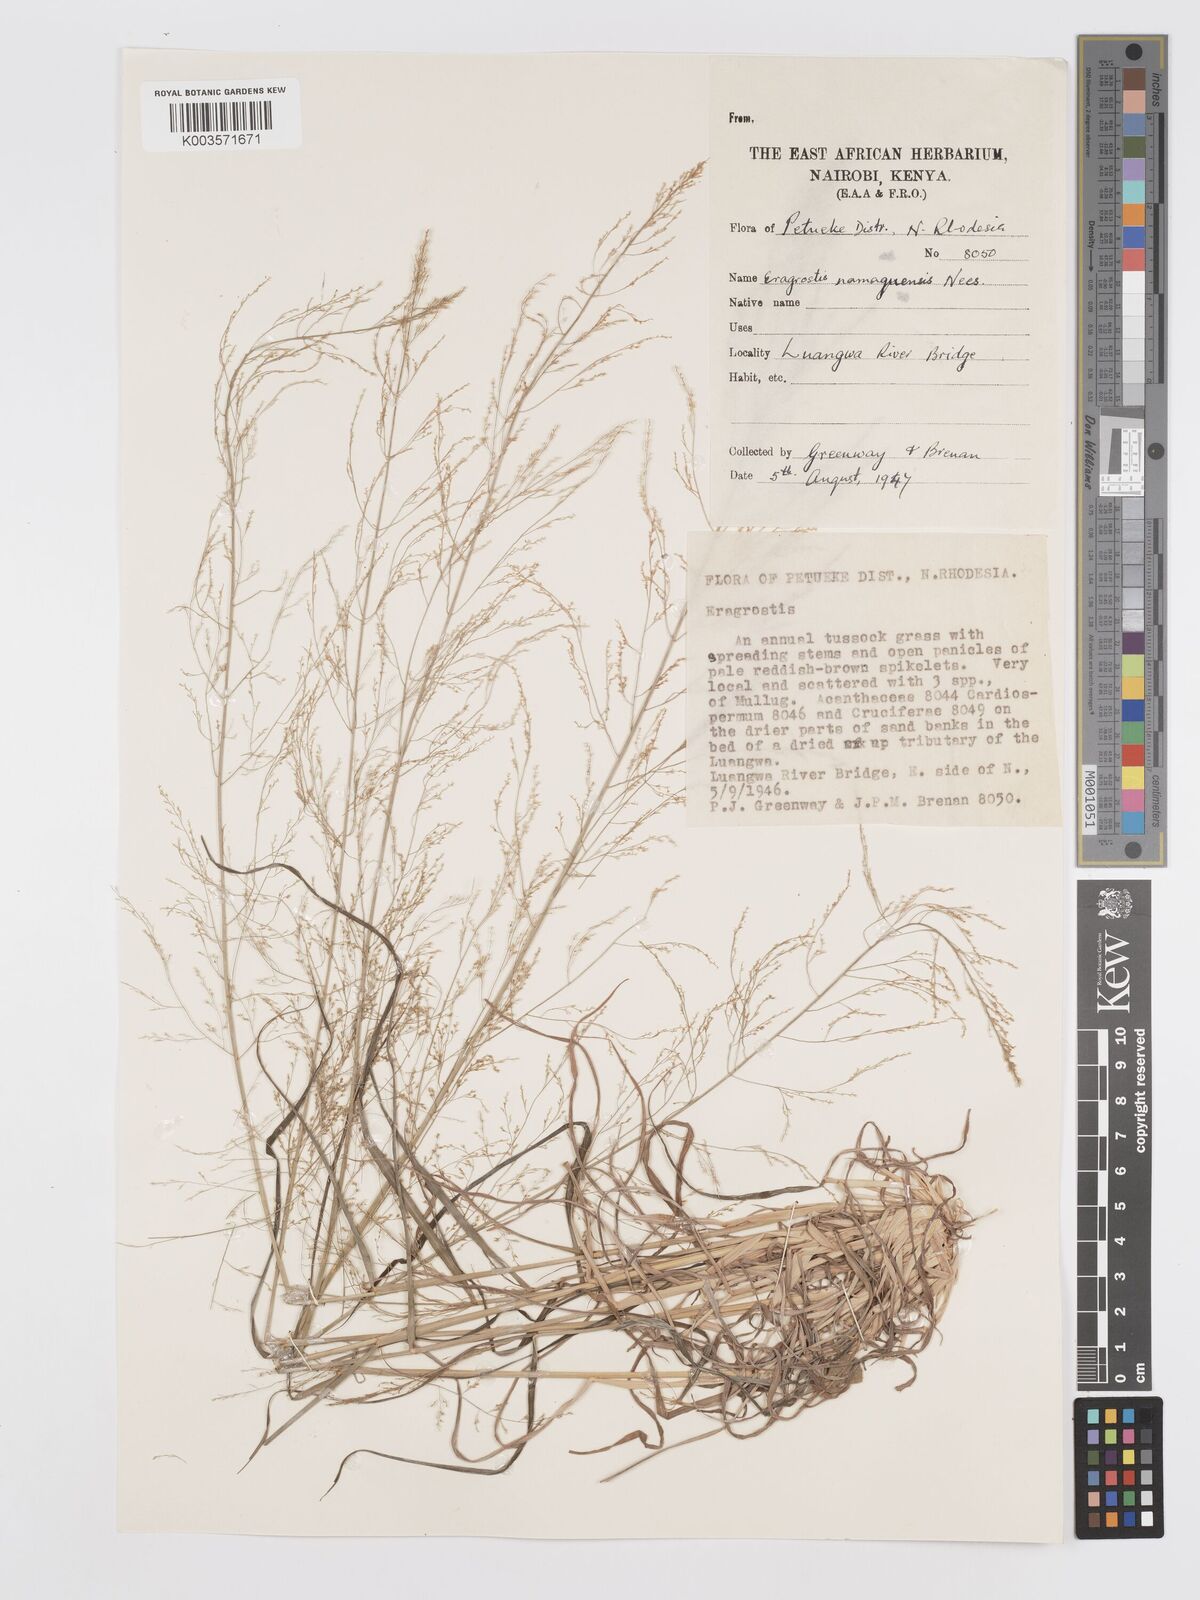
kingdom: Plantae
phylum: Tracheophyta
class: Liliopsida
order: Poales
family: Poaceae
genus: Eragrostis
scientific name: Eragrostis japonica
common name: Pond lovegrass
